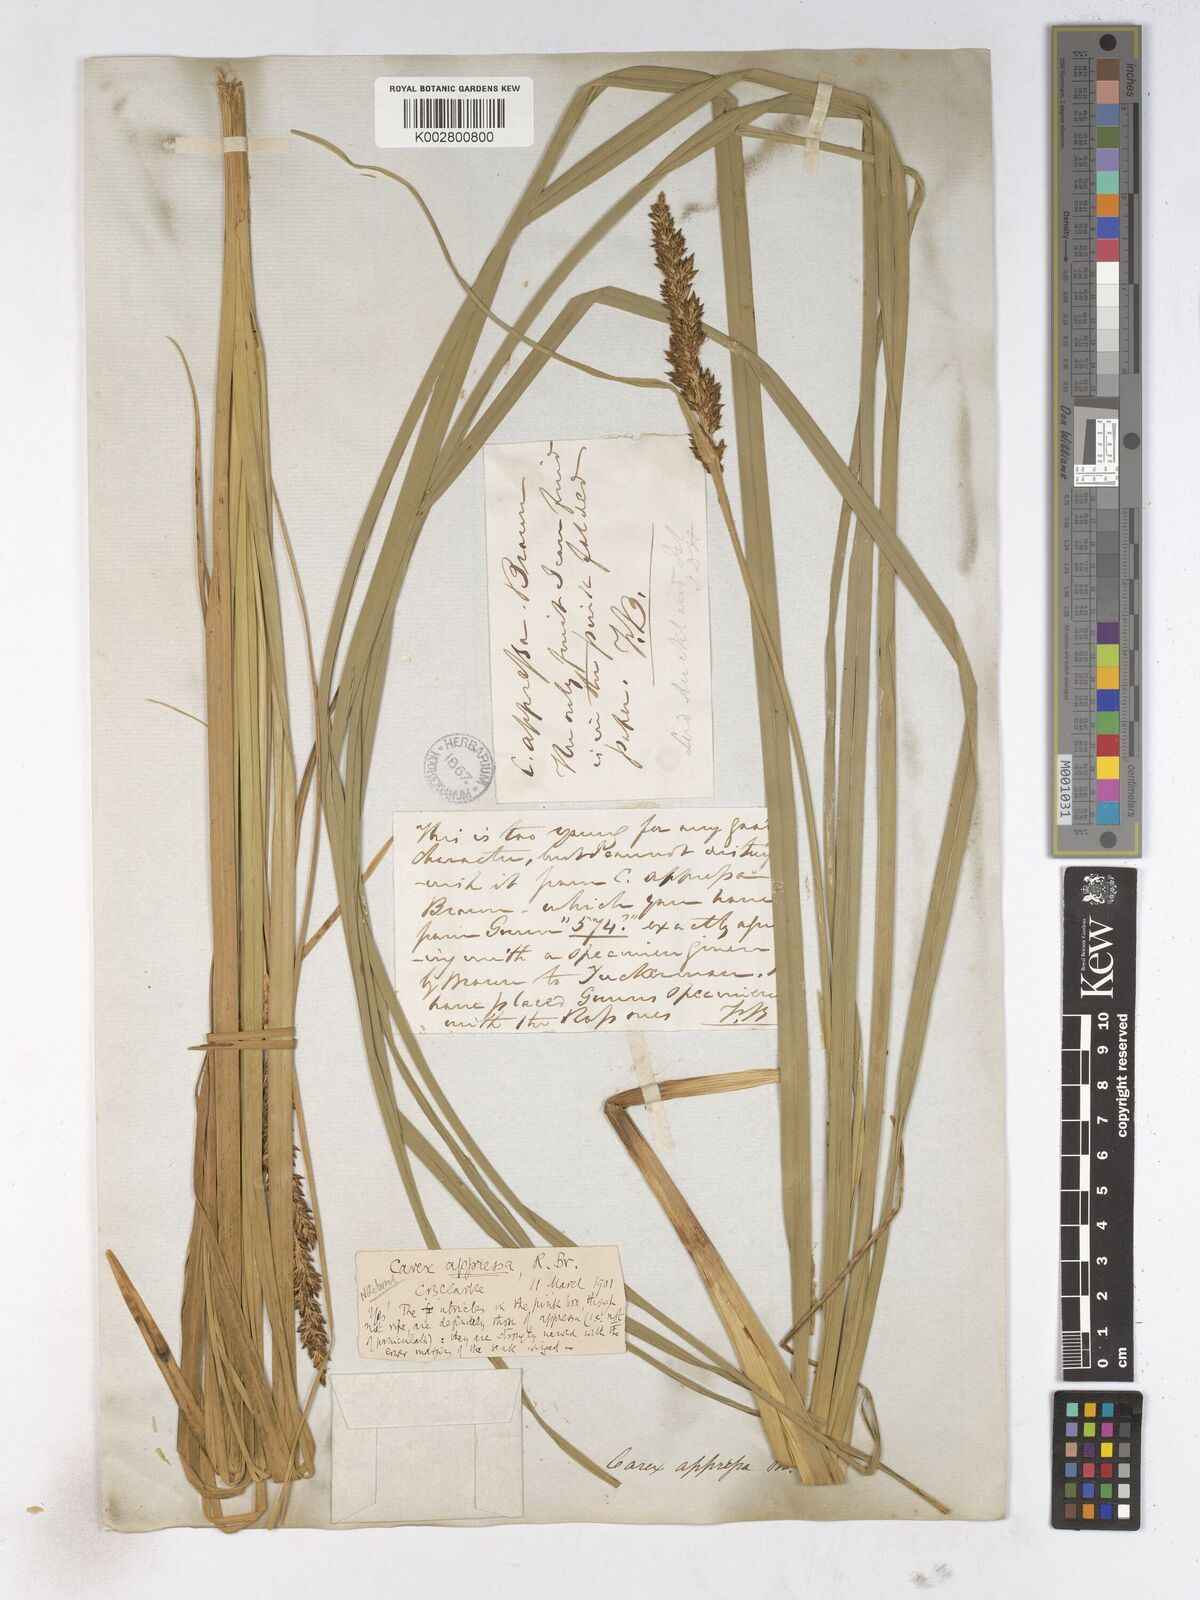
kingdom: Plantae
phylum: Tracheophyta
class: Liliopsida
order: Poales
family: Cyperaceae
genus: Carex
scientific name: Carex appressa
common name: Tussock sedge
